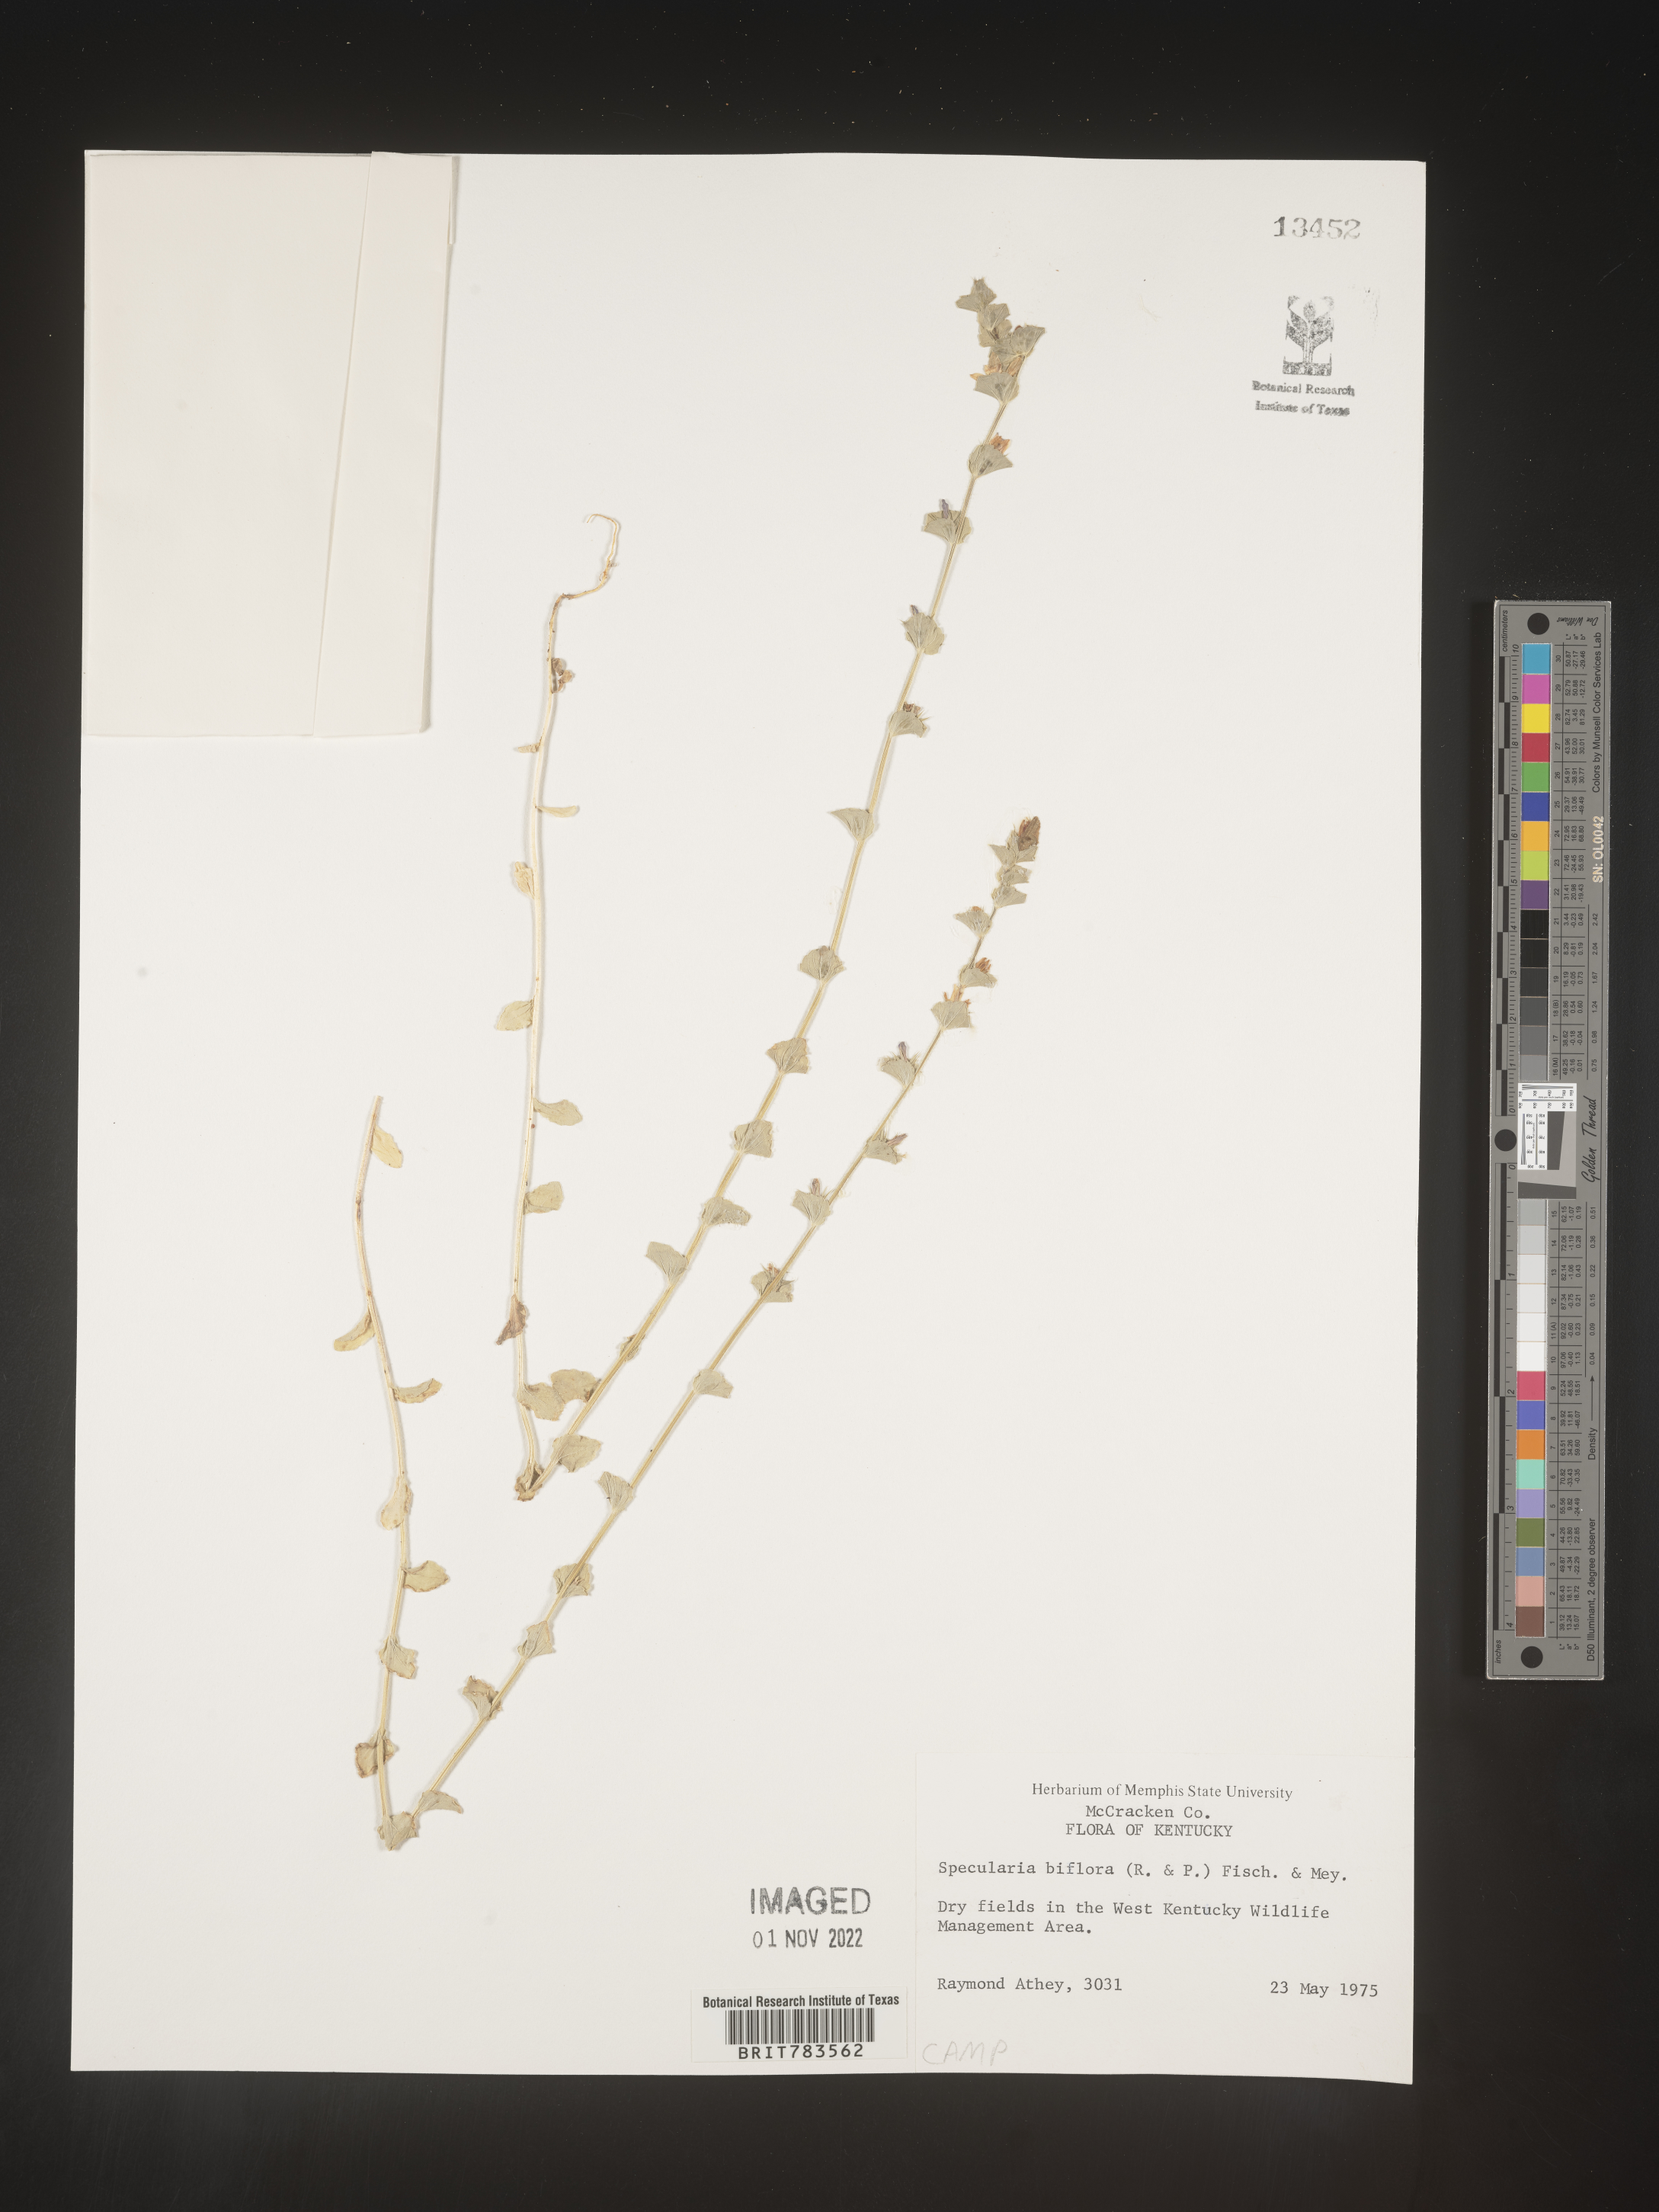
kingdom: Plantae
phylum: Tracheophyta
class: Magnoliopsida
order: Asterales
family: Campanulaceae
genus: Triodanis
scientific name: Triodanis perfoliata
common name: Clasping venus' looking-glass
